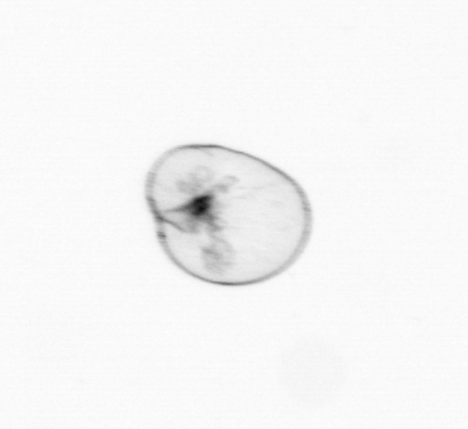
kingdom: Chromista
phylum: Myzozoa
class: Dinophyceae
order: Noctilucales
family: Noctilucaceae
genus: Noctiluca
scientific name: Noctiluca scintillans
